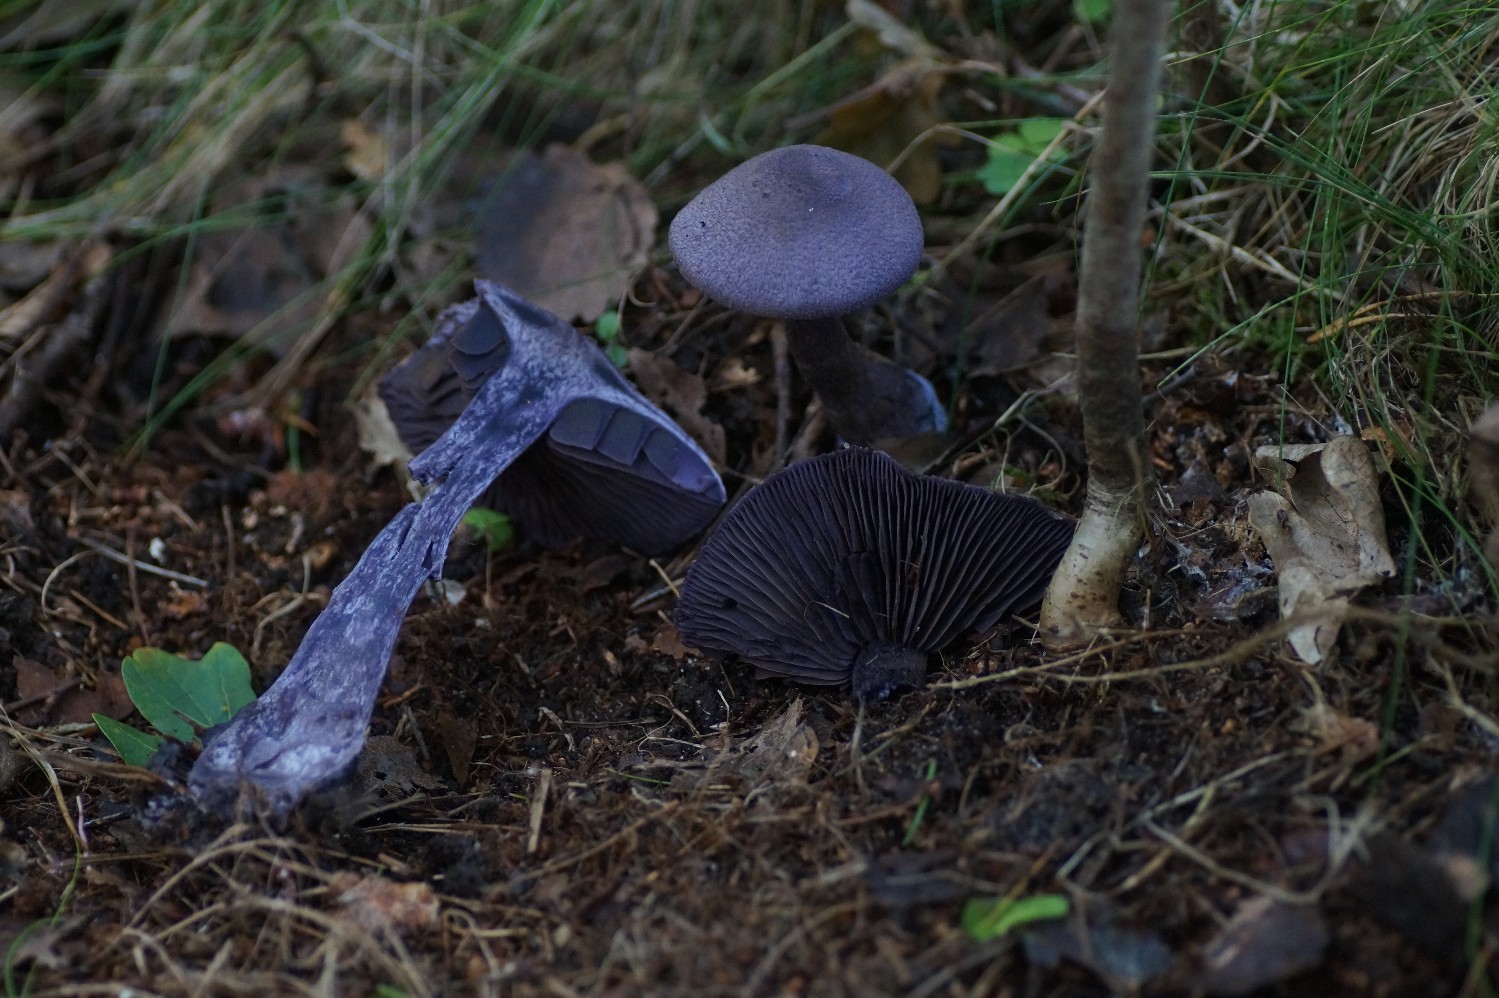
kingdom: Fungi
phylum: Basidiomycota
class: Agaricomycetes
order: Agaricales
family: Cortinariaceae
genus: Cortinarius
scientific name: Cortinarius violaceus
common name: mørkviolet slørhat
